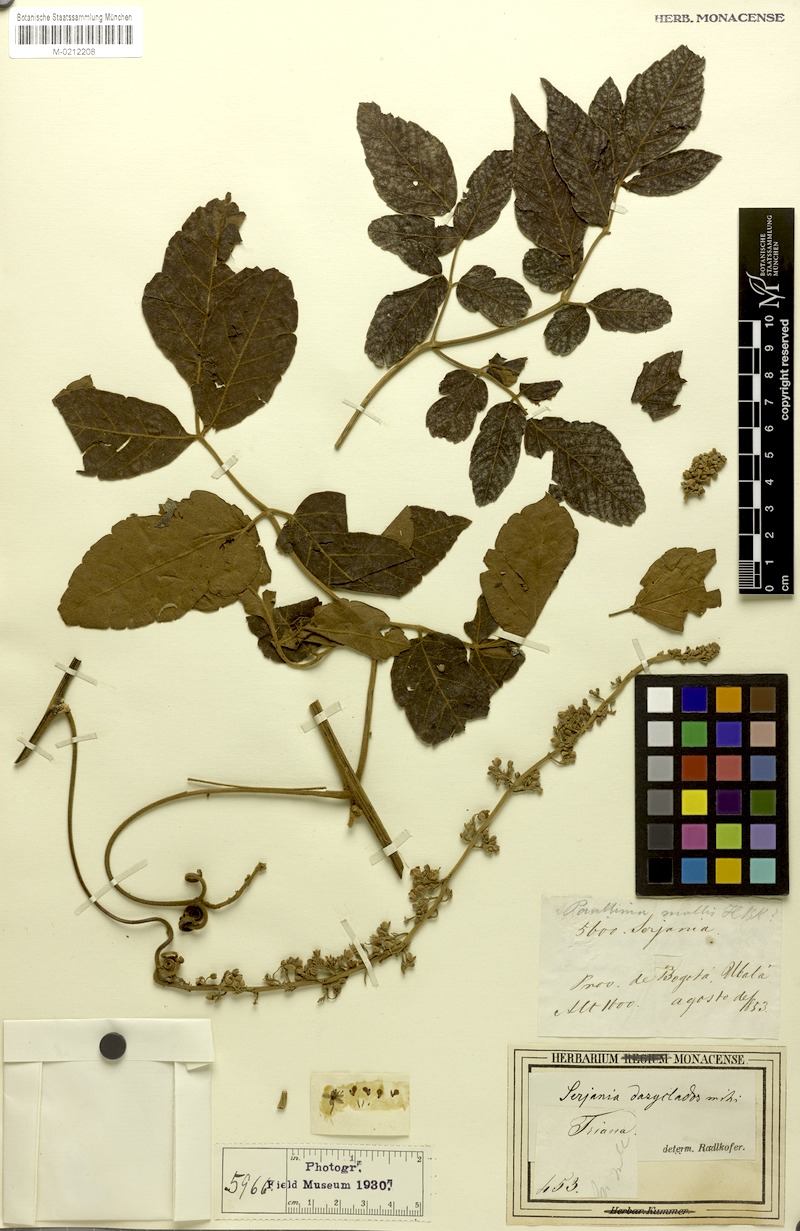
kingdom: Plantae
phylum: Tracheophyta
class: Magnoliopsida
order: Sapindales
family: Sapindaceae
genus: Serjania
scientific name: Serjania dasyclados
